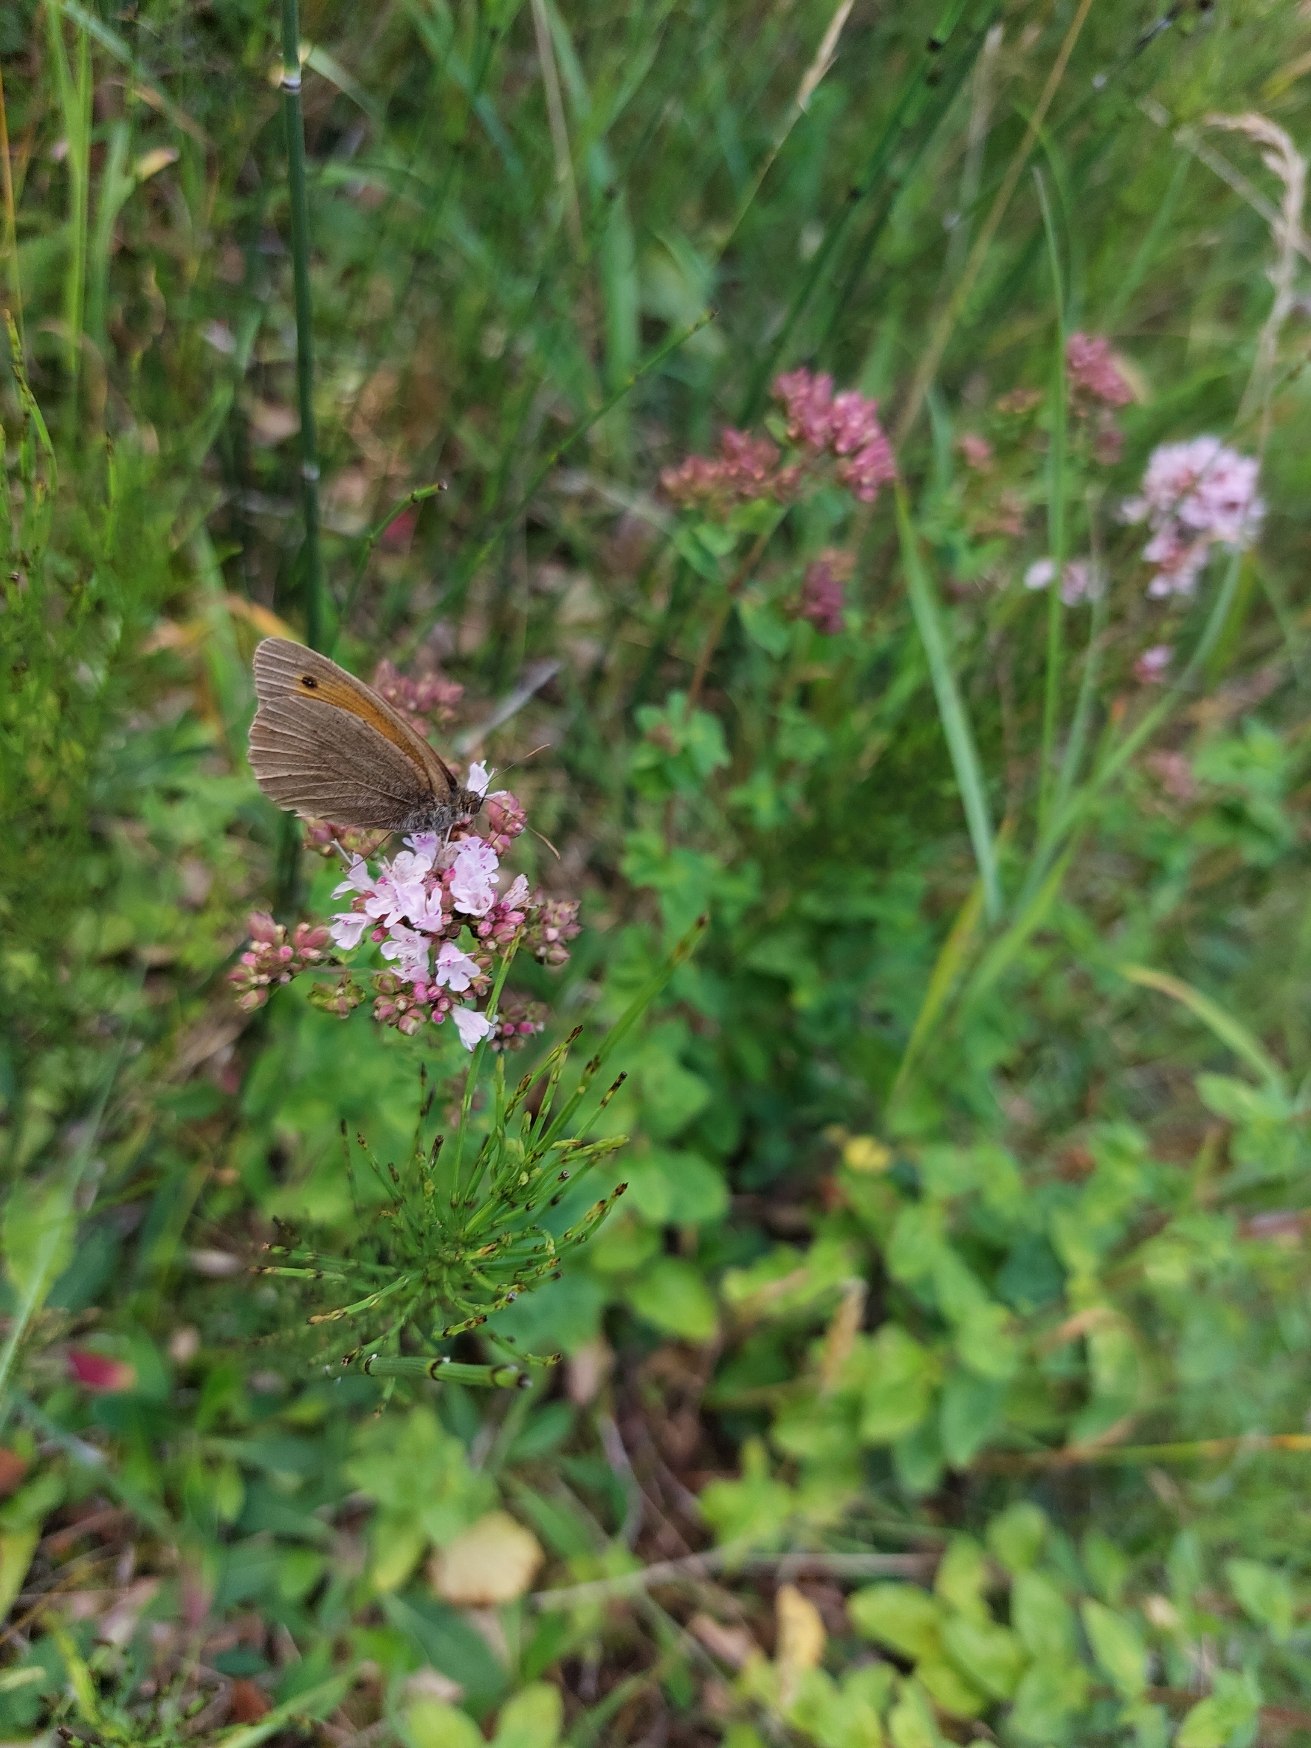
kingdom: Animalia
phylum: Arthropoda
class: Insecta
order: Lepidoptera
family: Nymphalidae
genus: Maniola
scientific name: Maniola jurtina
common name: Græsrandøje
